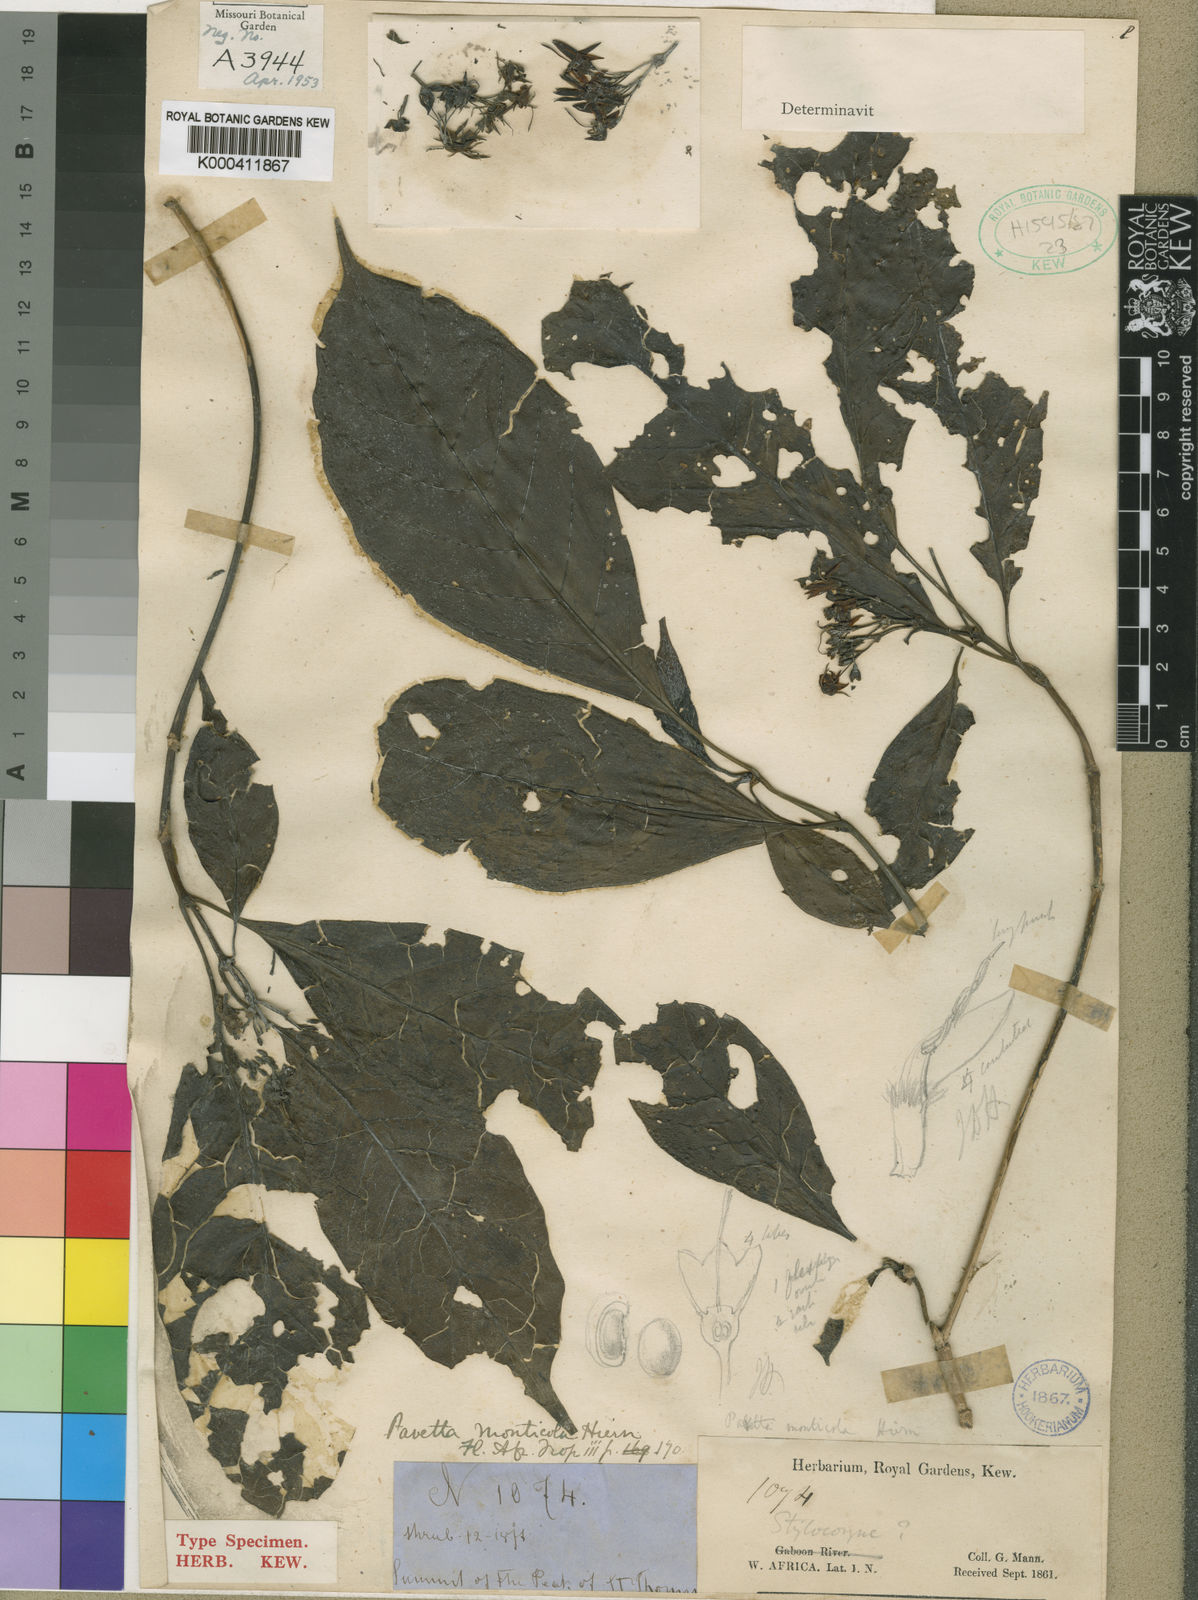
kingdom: Plantae
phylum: Tracheophyta
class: Magnoliopsida
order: Gentianales
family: Rubiaceae
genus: Pavetta
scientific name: Pavetta monticola
